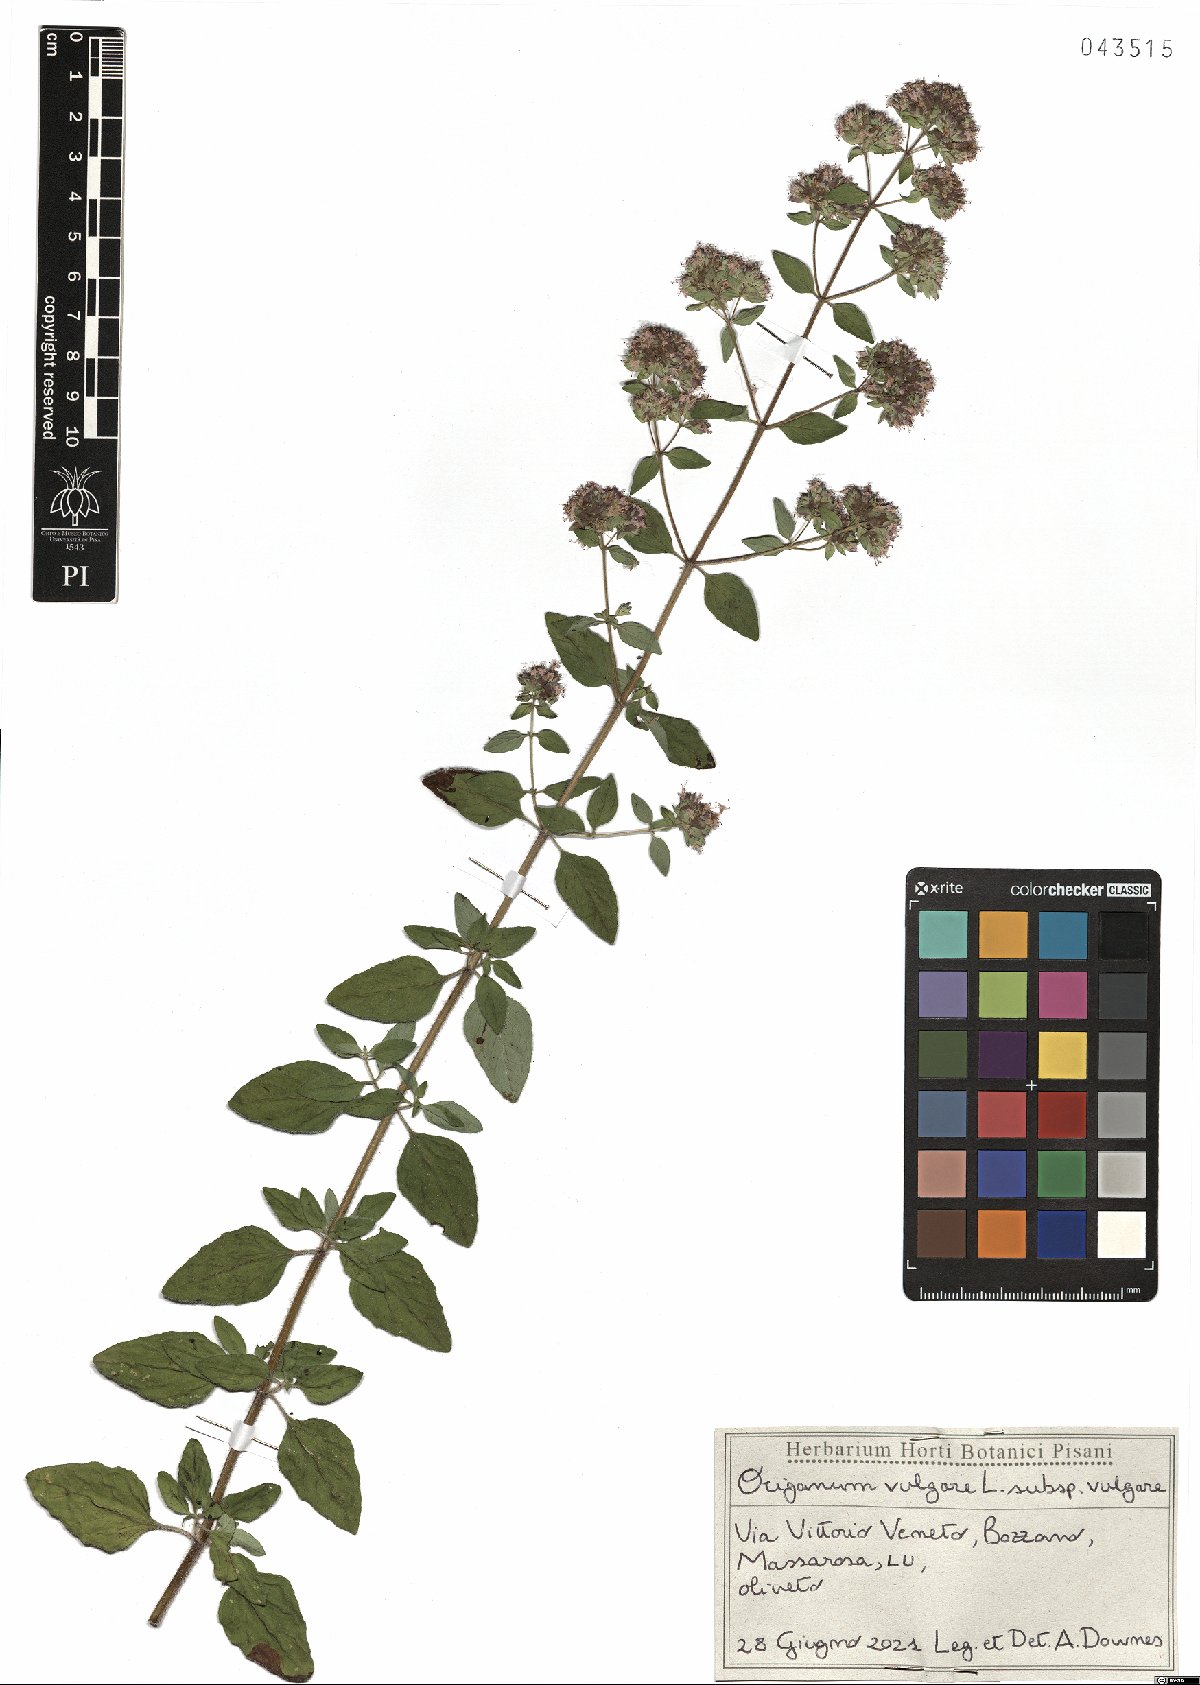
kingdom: Plantae
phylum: Tracheophyta
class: Magnoliopsida
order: Lamiales
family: Lamiaceae
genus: Origanum
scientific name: Origanum vulgare
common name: Wild marjoram
